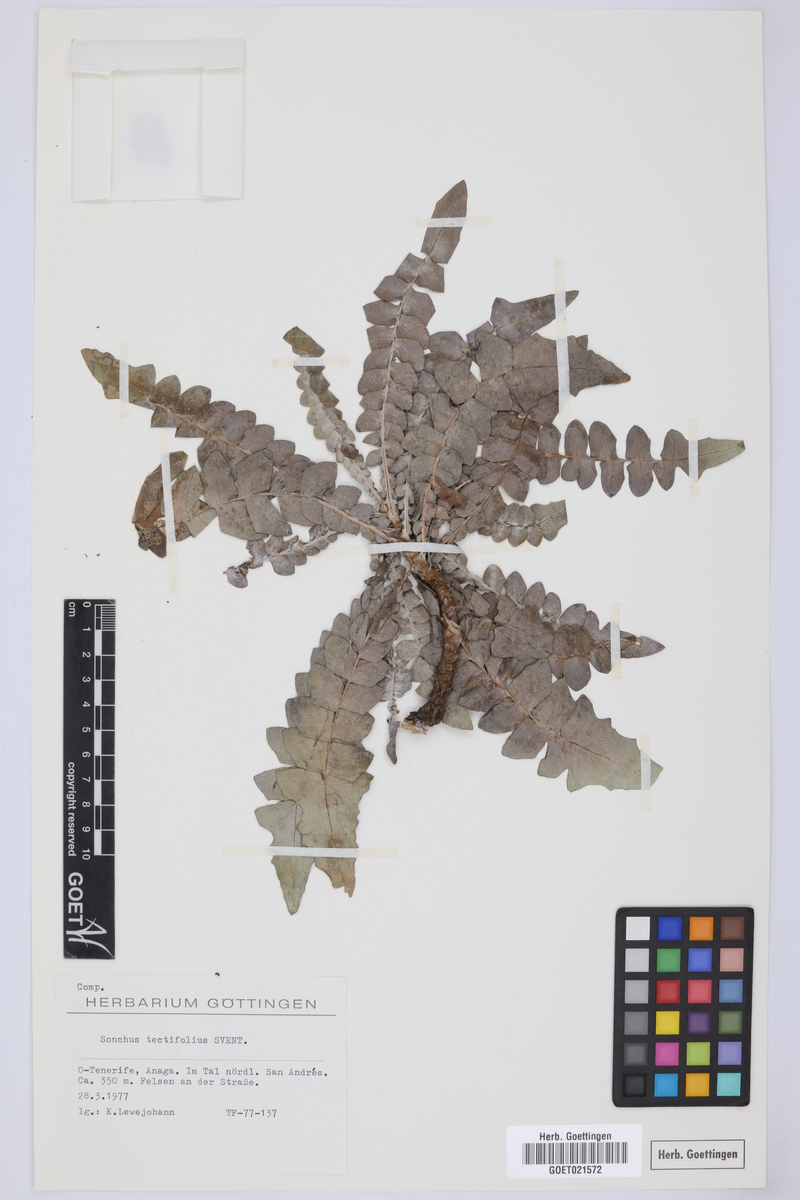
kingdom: Plantae
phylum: Tracheophyta
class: Magnoliopsida
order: Asterales
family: Asteraceae
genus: Sonchus
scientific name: Sonchus tectifolius
